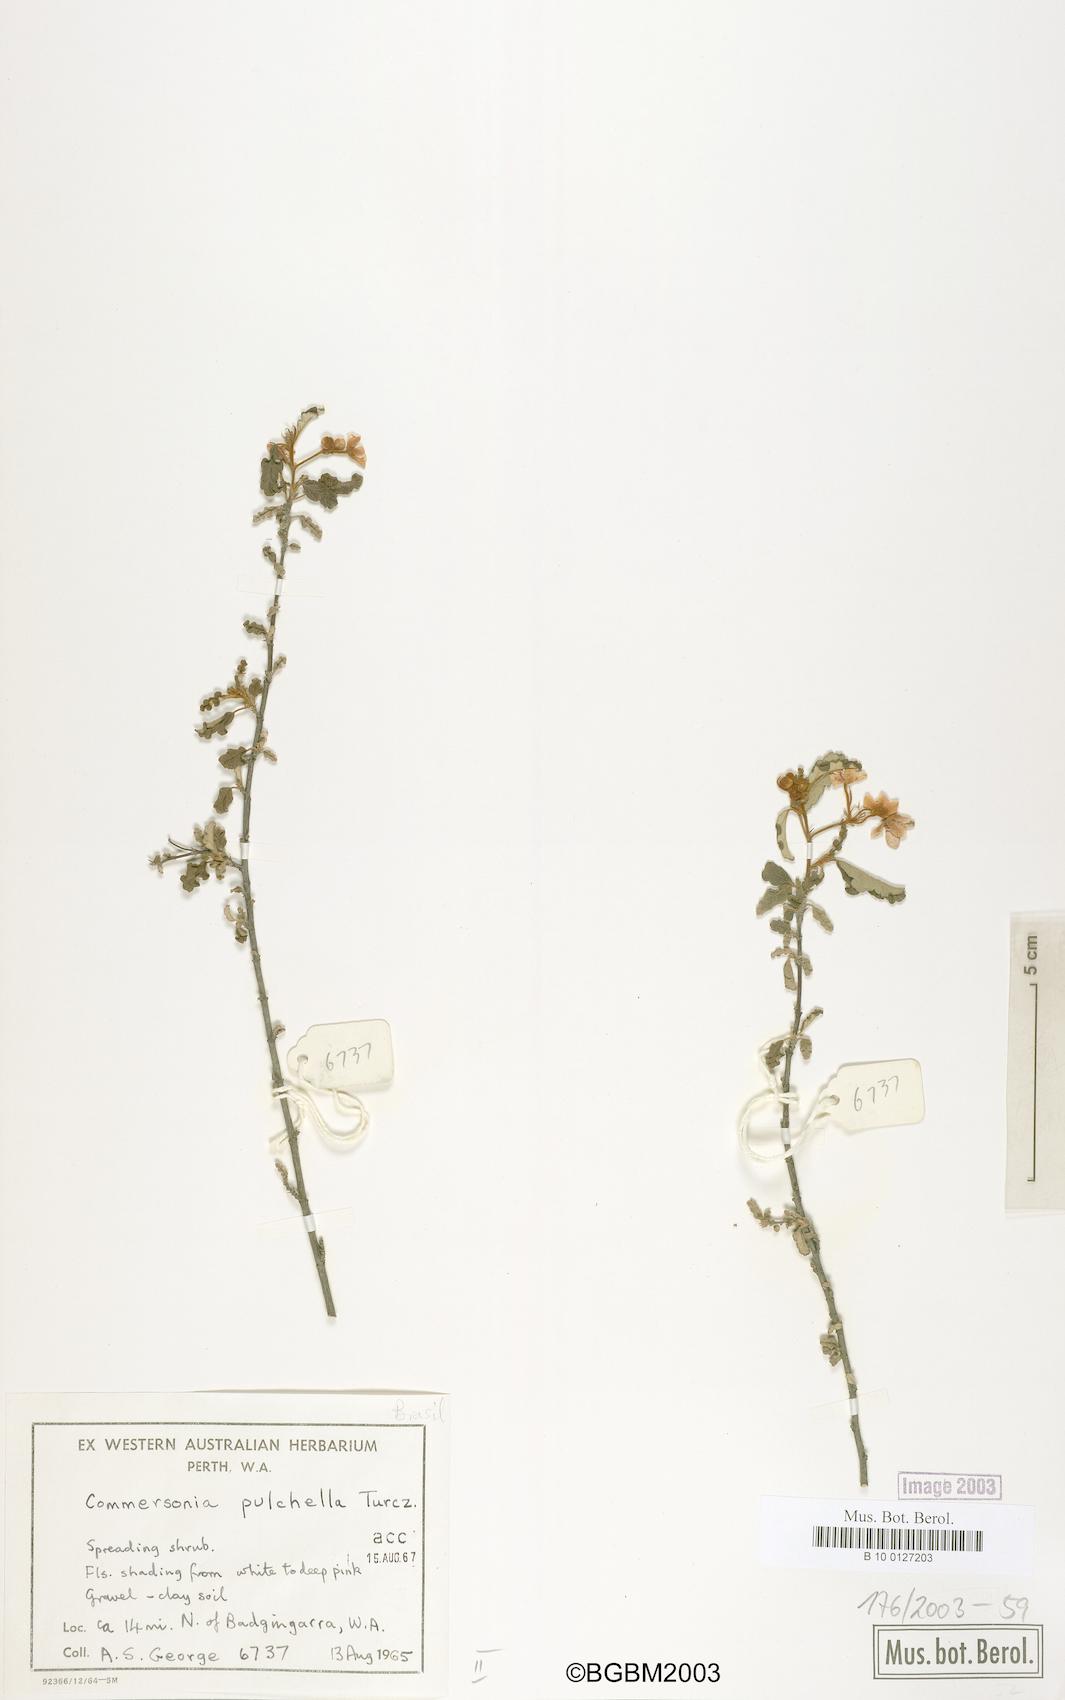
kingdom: Plantae
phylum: Tracheophyta
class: Magnoliopsida
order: Malvales
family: Malvaceae
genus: Androcalva
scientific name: Androcalva pulchella
